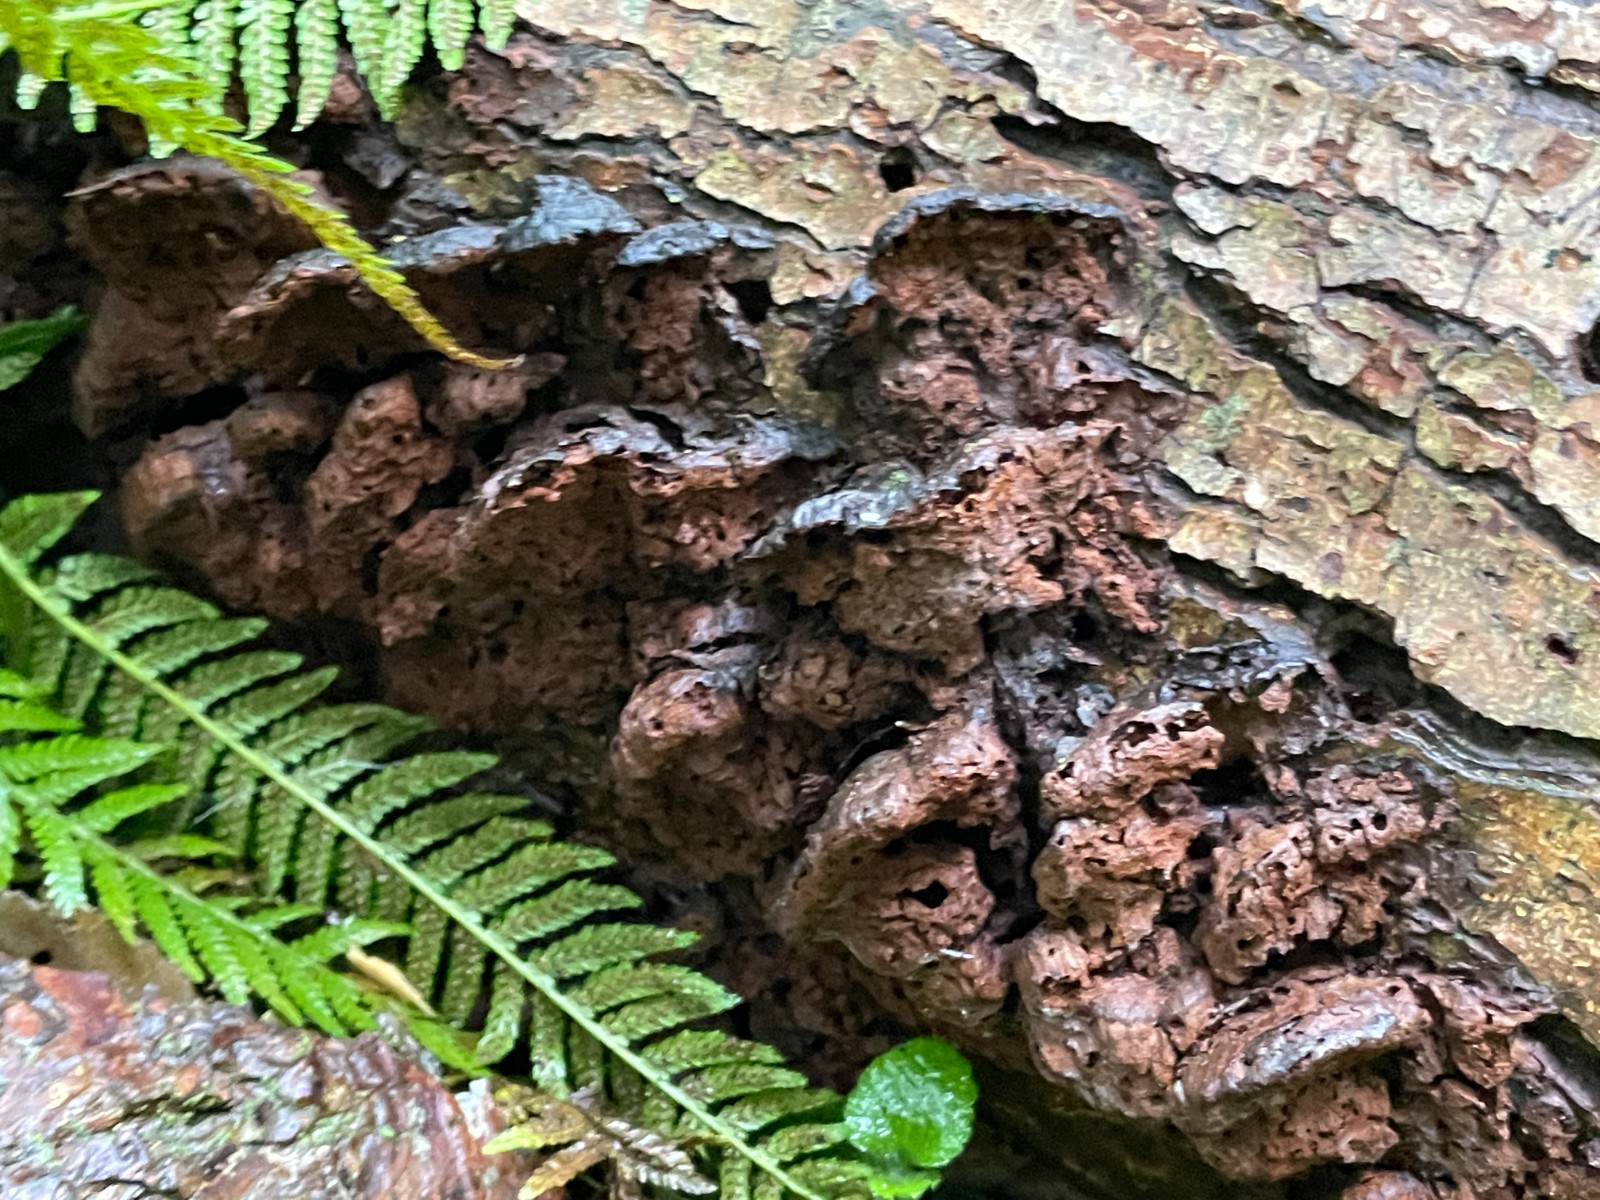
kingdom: Fungi
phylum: Basidiomycota
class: Agaricomycetes
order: Hymenochaetales
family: Hymenochaetaceae
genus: Xanthoporia
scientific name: Xanthoporia radiata
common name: elle-spejlporesvamp
